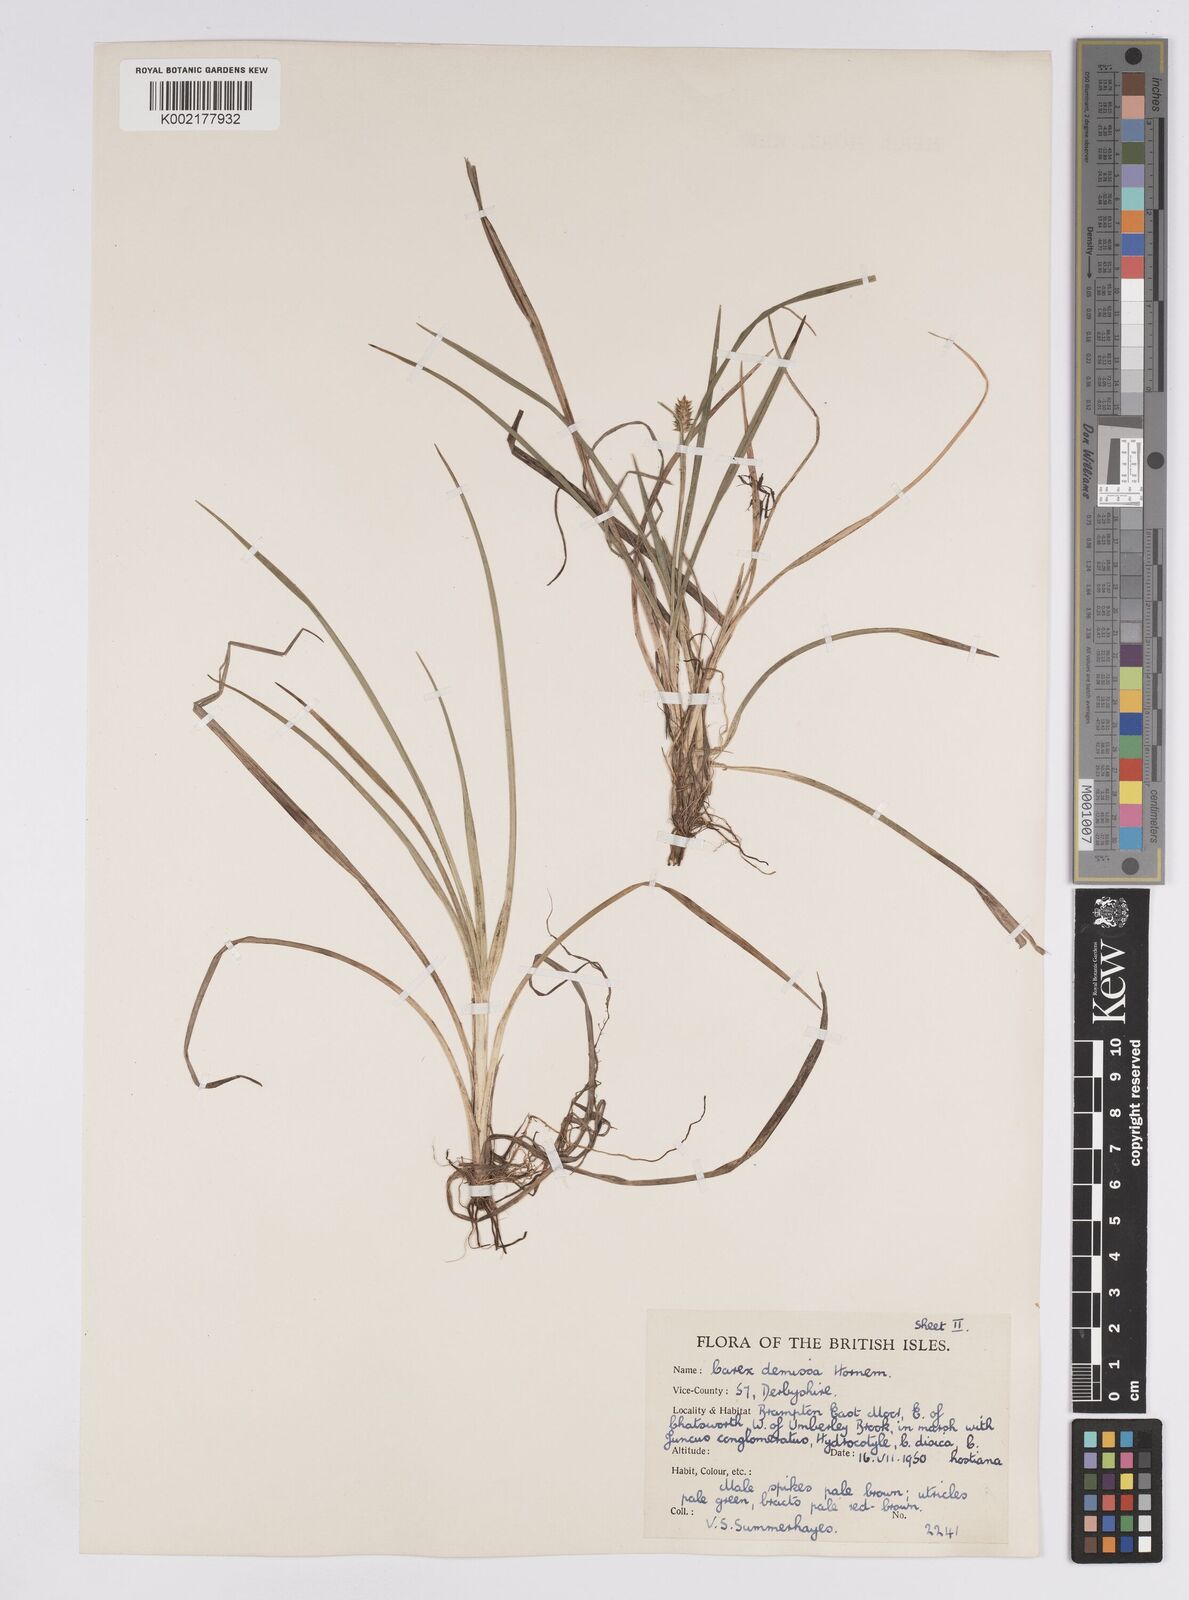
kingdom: Plantae
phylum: Tracheophyta
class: Liliopsida
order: Poales
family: Cyperaceae
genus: Carex
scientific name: Carex demissa
